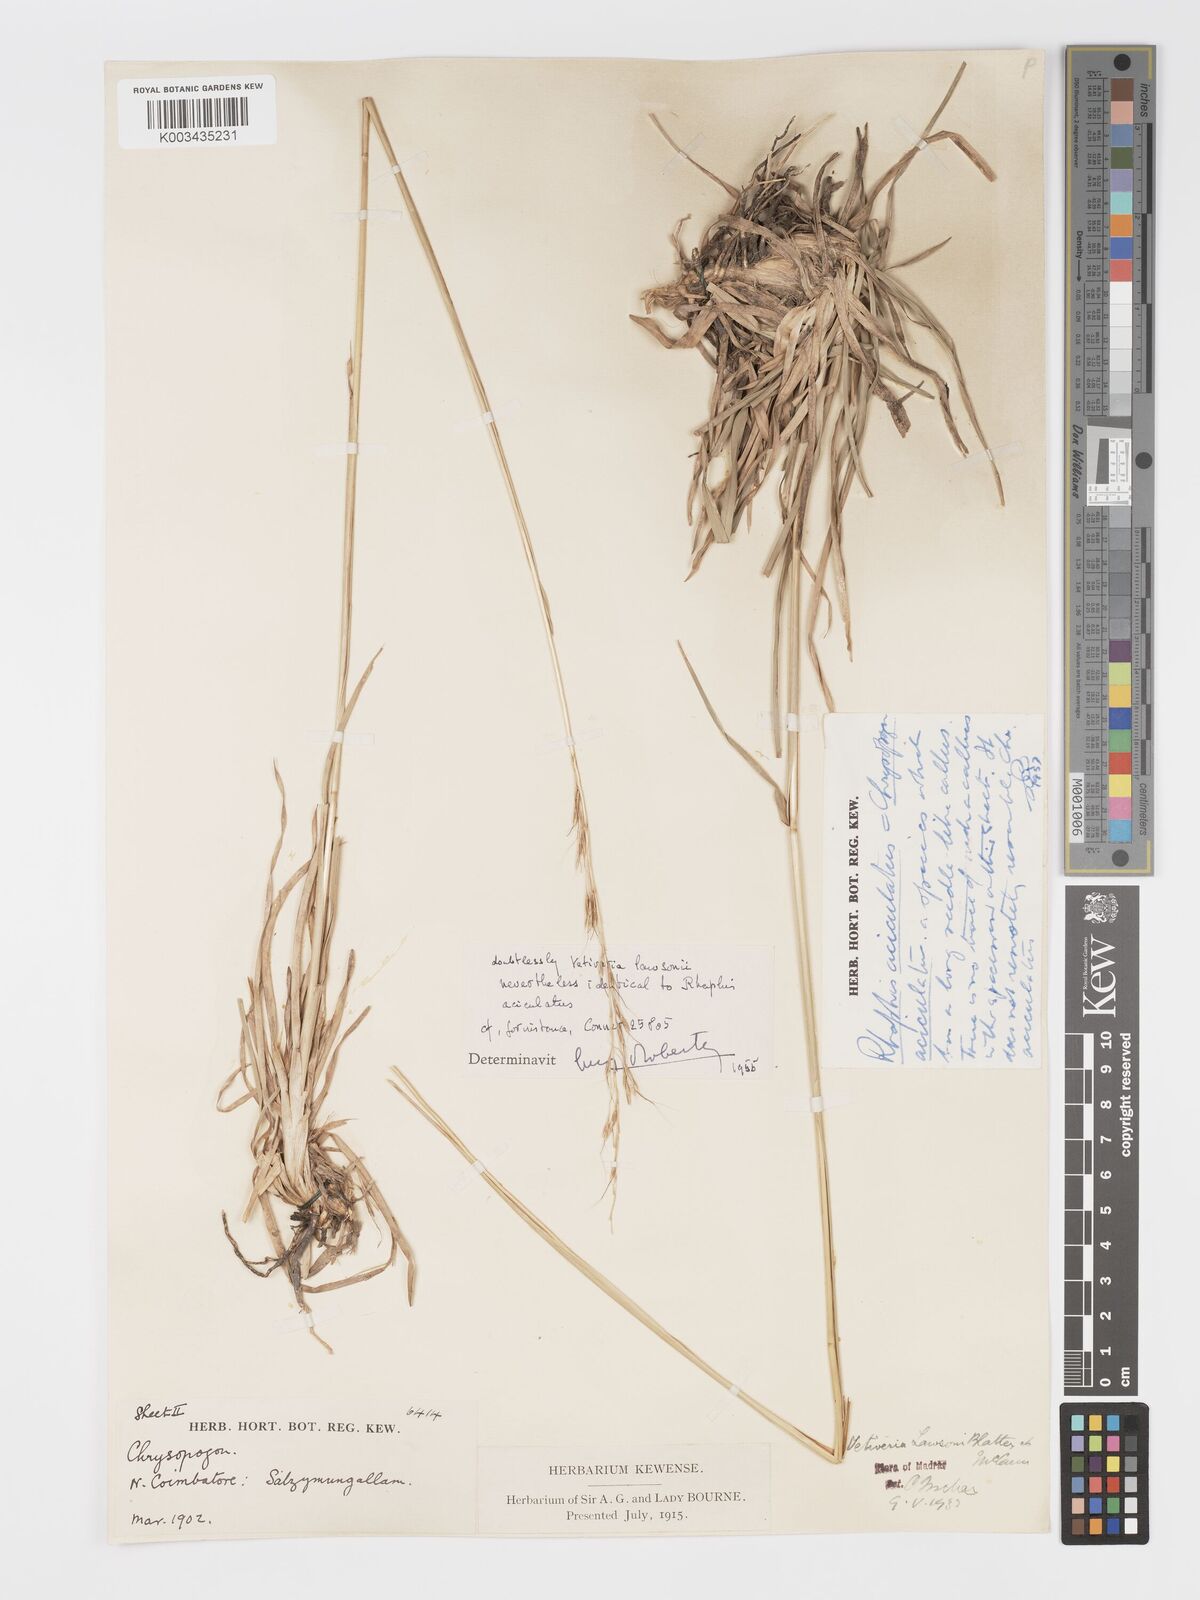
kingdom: Plantae
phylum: Tracheophyta
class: Liliopsida
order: Poales
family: Poaceae
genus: Chrysopogon
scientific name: Chrysopogon lawsonii
